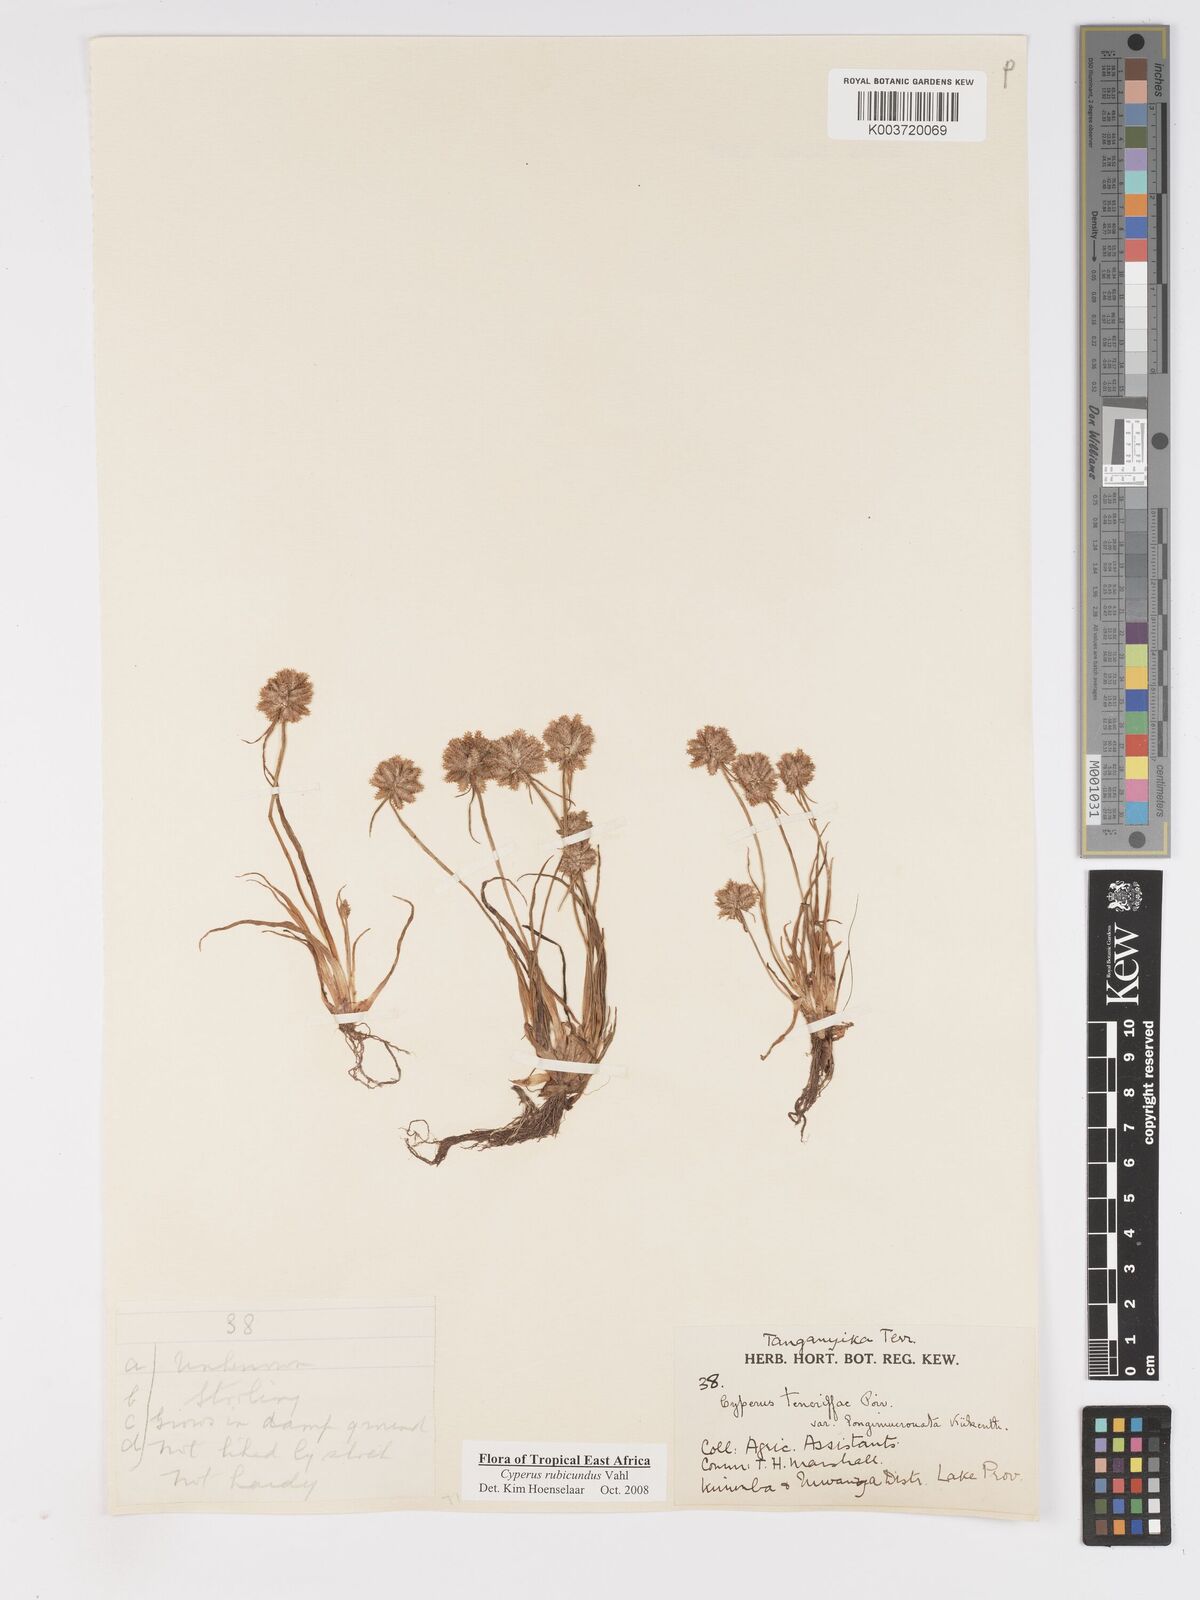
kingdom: Plantae
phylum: Tracheophyta
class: Liliopsida
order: Poales
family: Cyperaceae
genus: Cyperus
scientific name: Cyperus rubicundus
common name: Coco-grass
